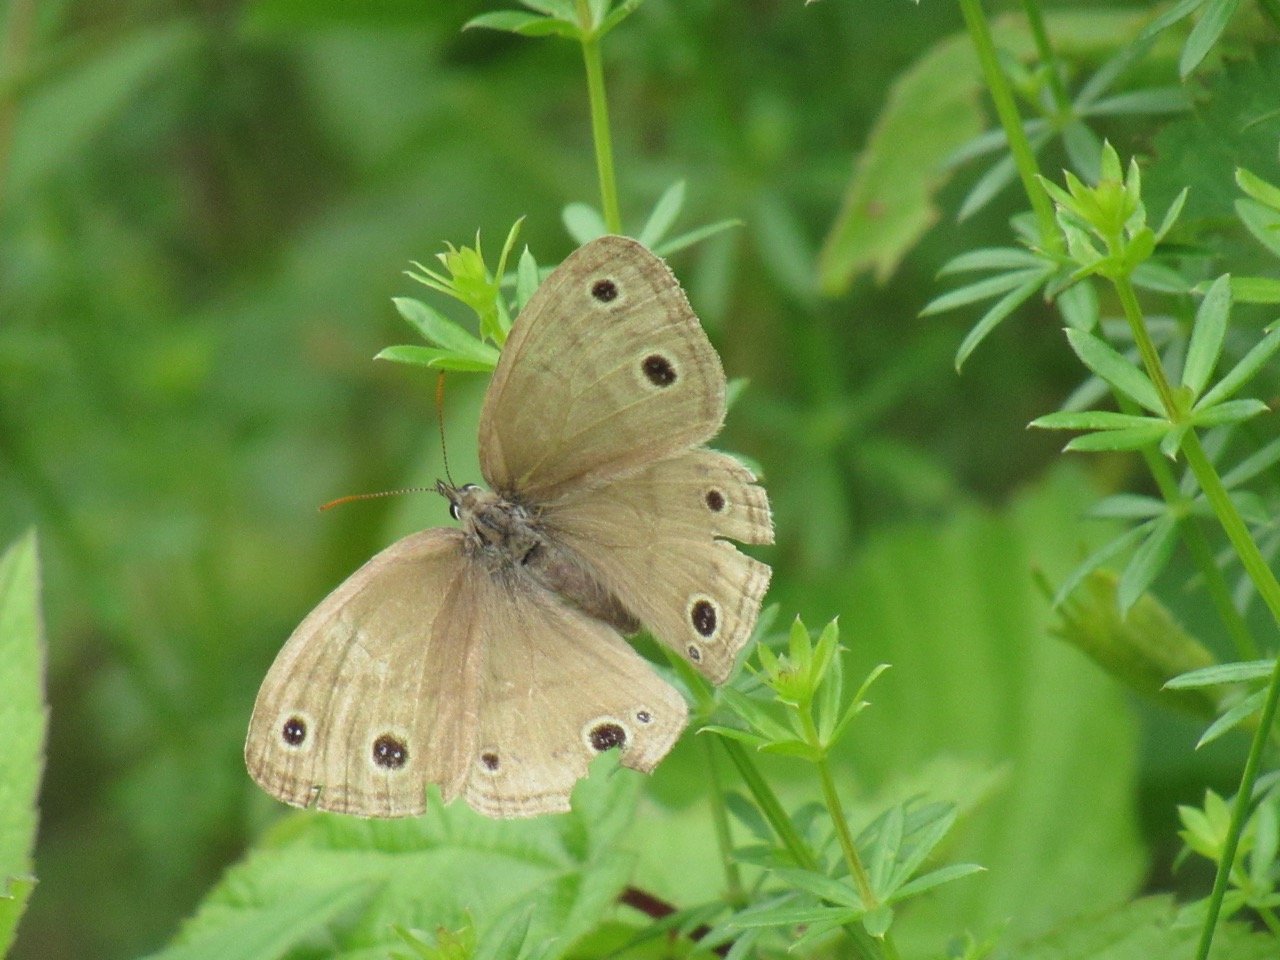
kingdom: Animalia
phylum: Arthropoda
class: Insecta
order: Lepidoptera
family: Nymphalidae
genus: Euptychia
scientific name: Euptychia cymela
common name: Little Wood Satyr
